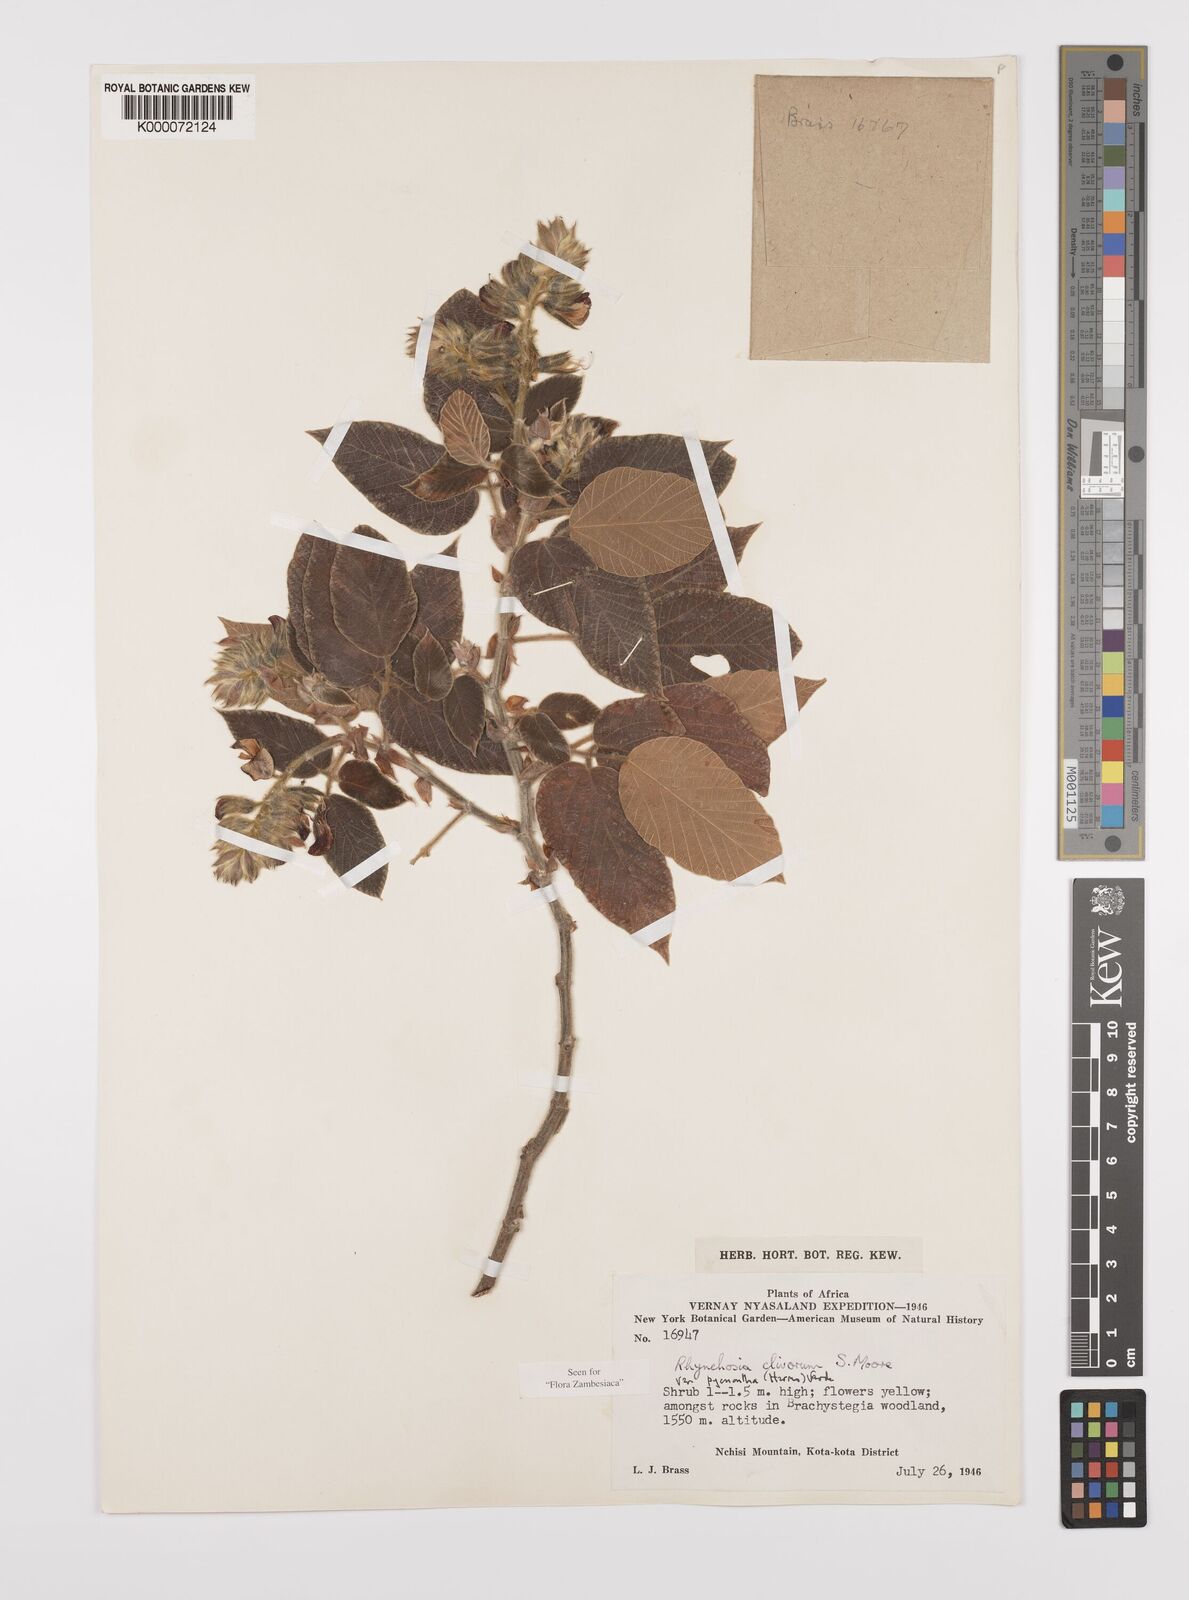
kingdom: Plantae
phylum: Tracheophyta
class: Magnoliopsida
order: Fabales
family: Fabaceae
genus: Rhynchosia
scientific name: Rhynchosia clivorum
